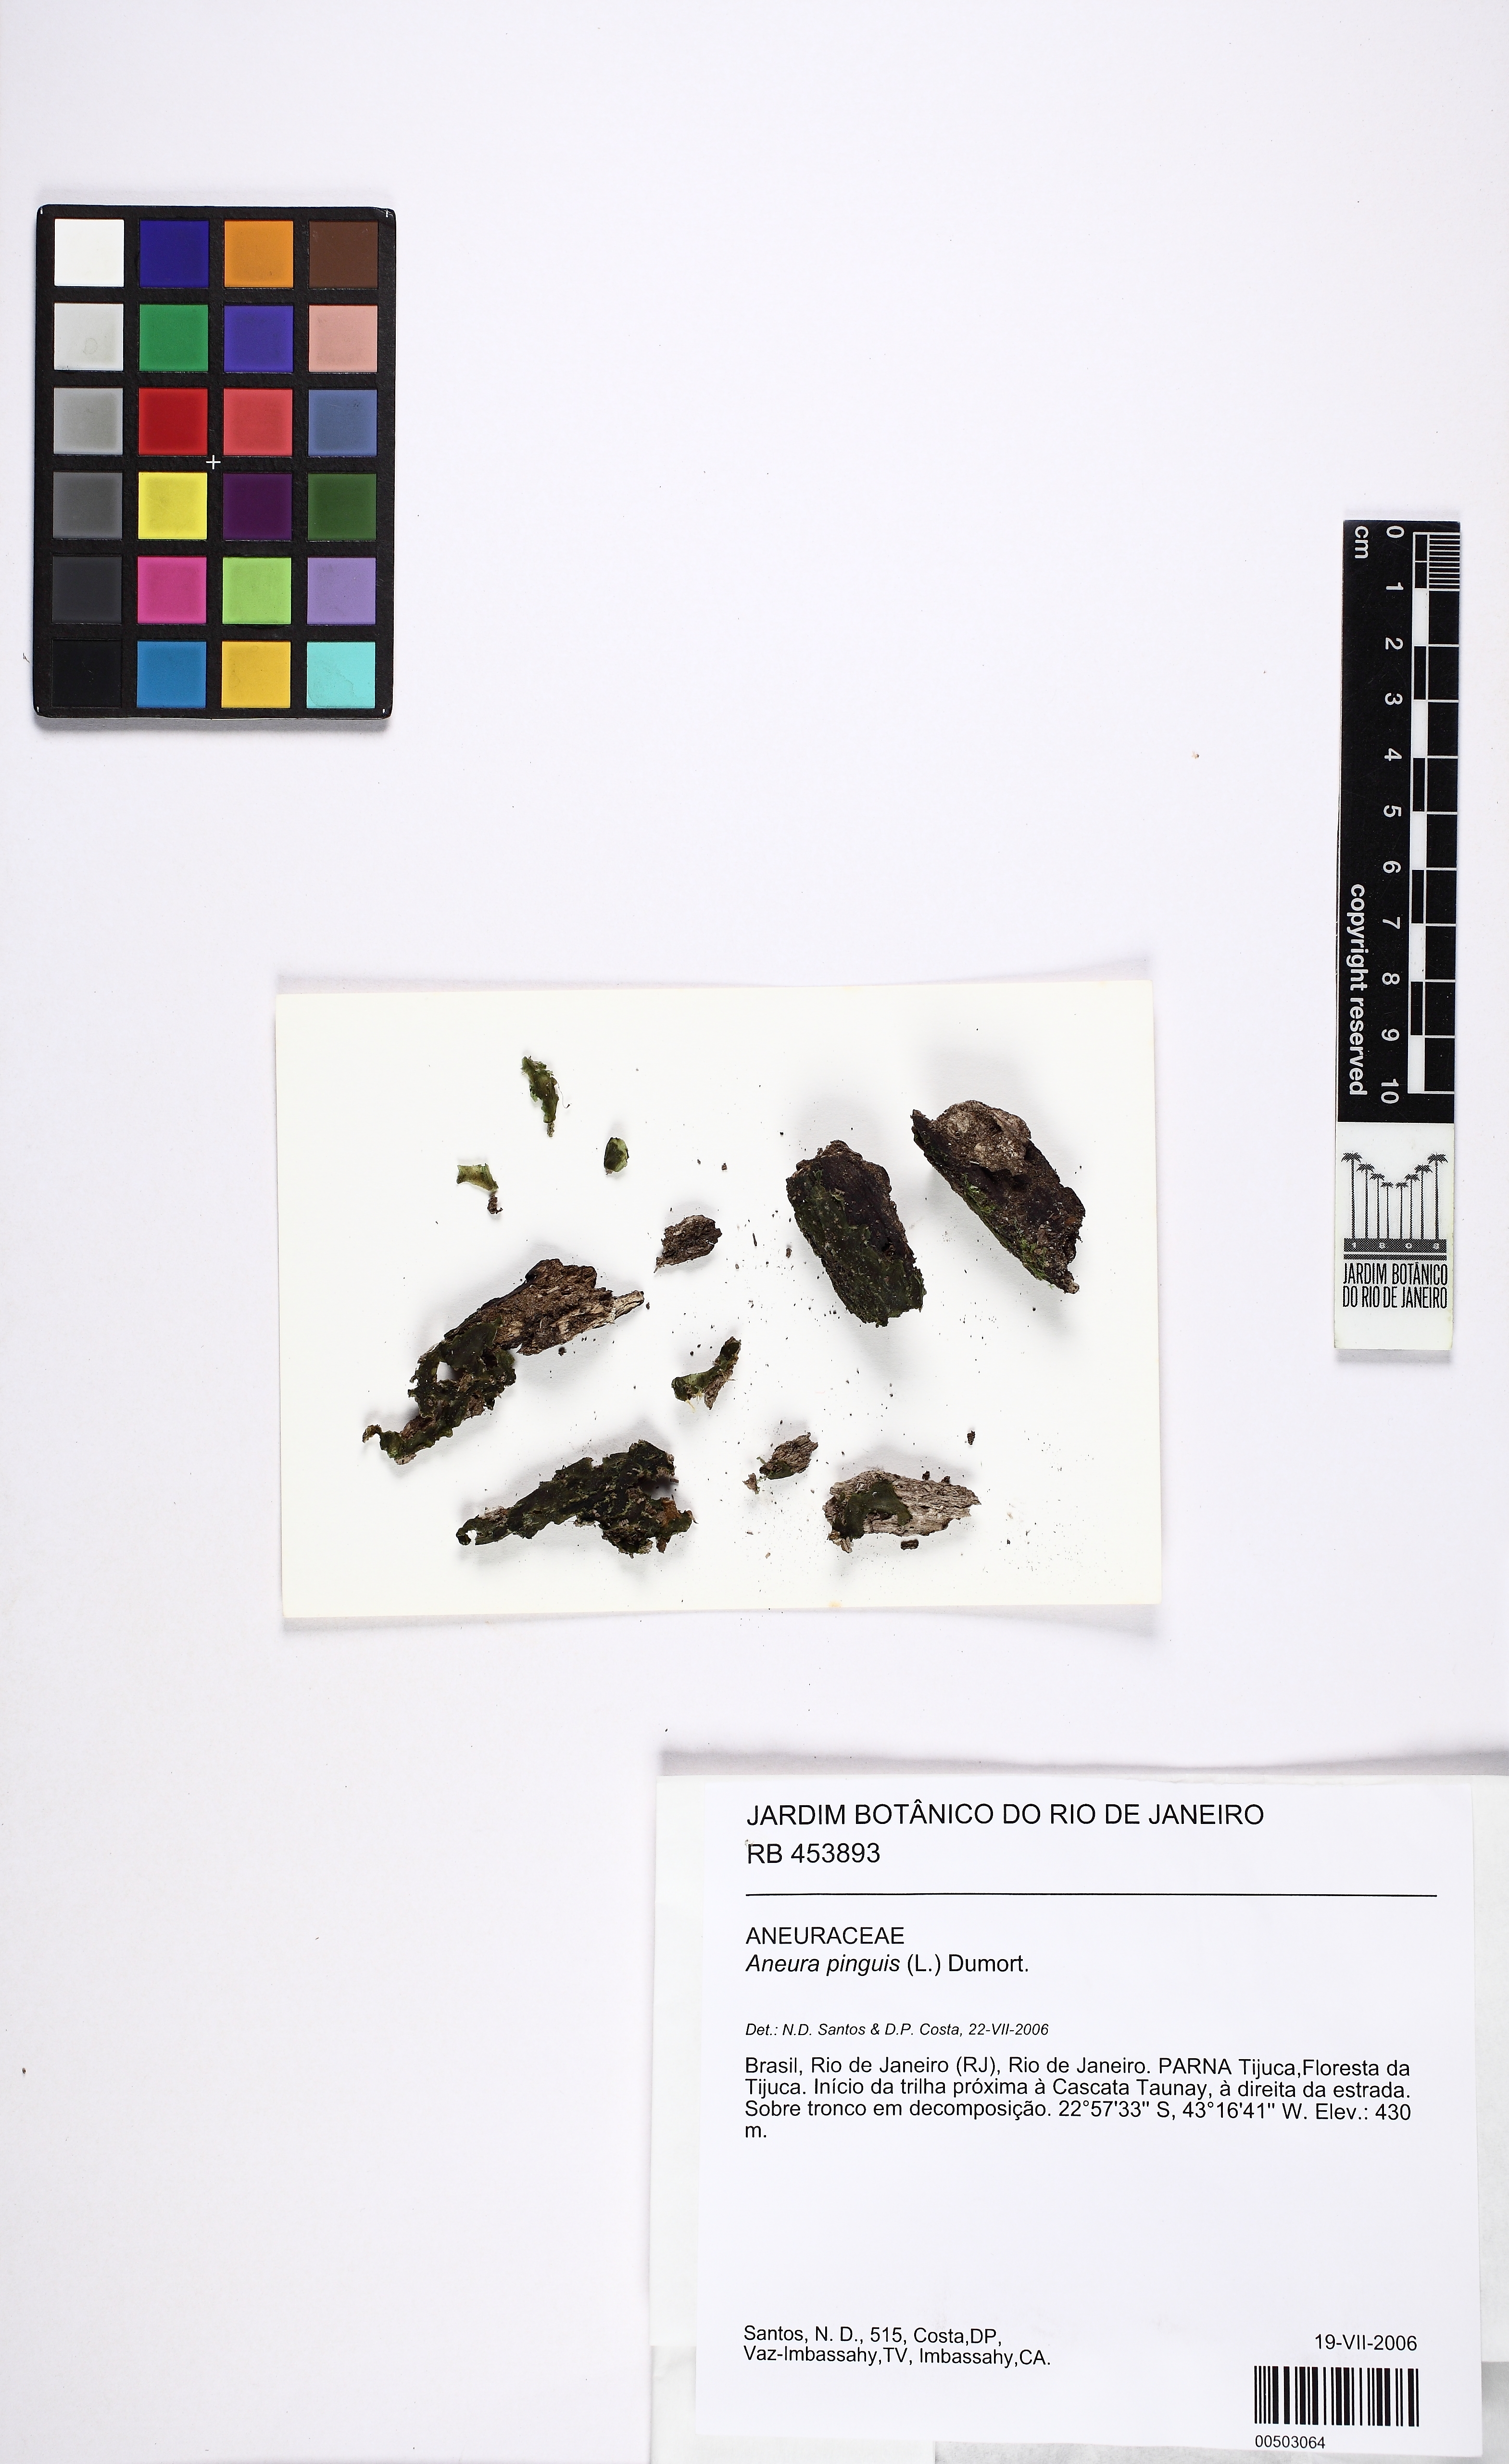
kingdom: Plantae
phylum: Marchantiophyta
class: Jungermanniopsida
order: Metzgeriales
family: Aneuraceae
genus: Aneura
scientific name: Aneura pinguis
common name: Common greasewort
